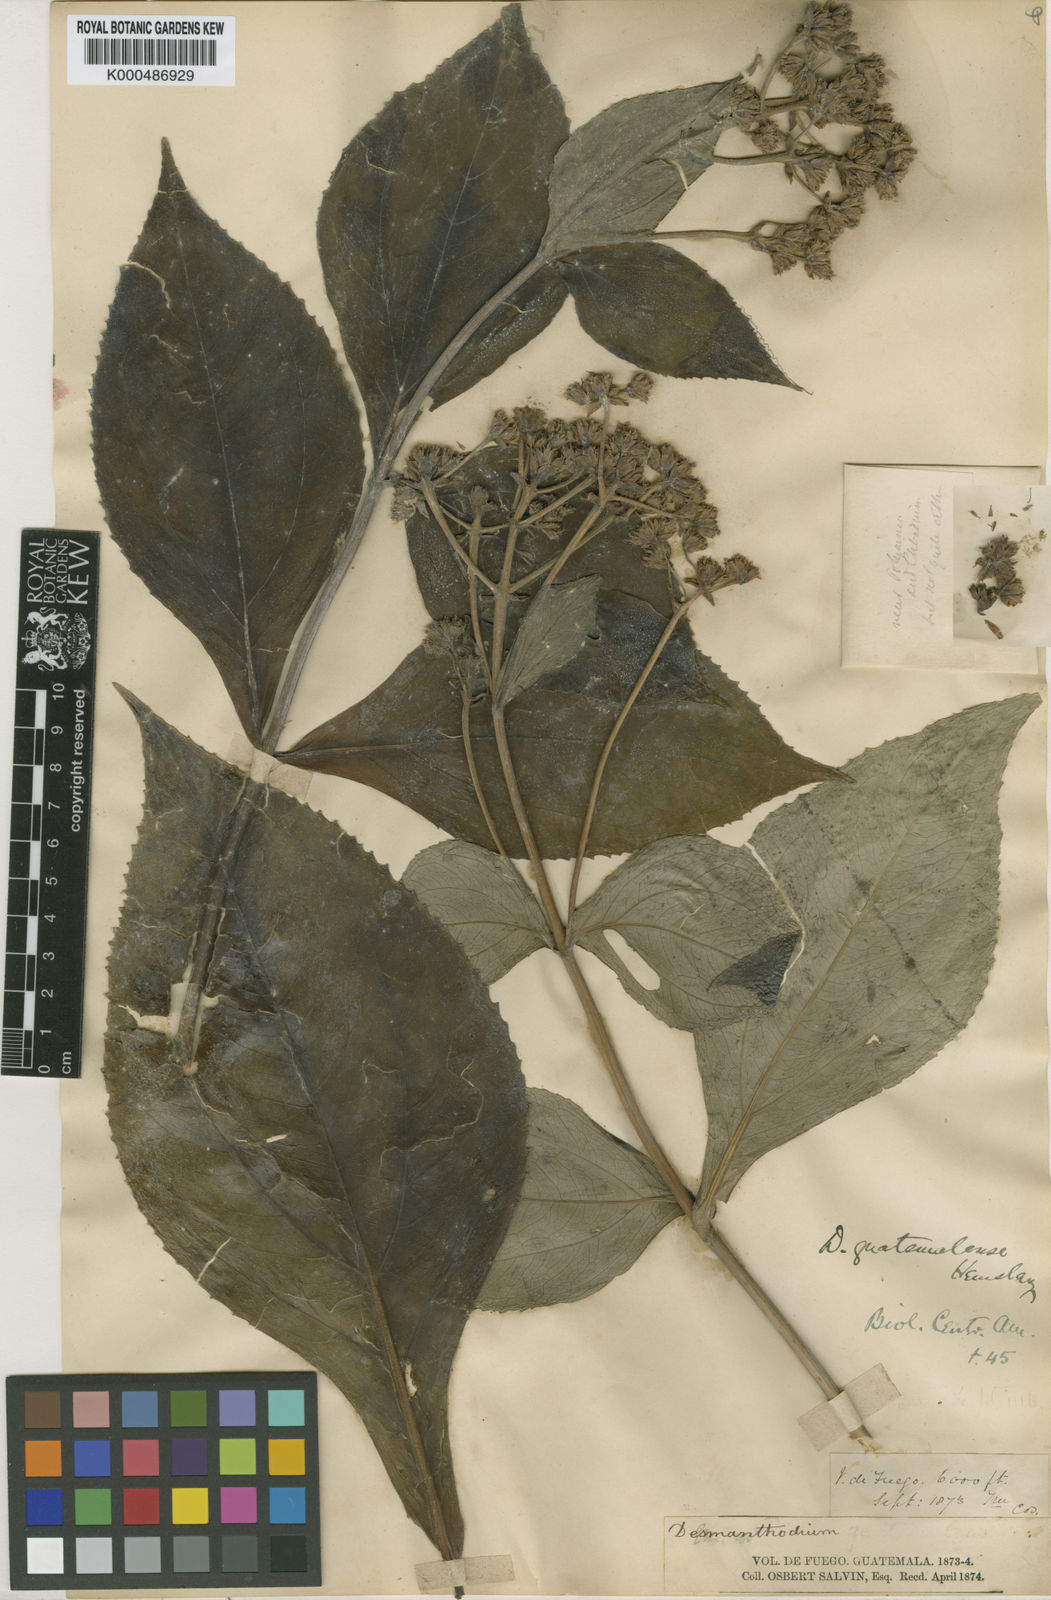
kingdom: Plantae
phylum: Tracheophyta
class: Magnoliopsida
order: Asterales
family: Asteraceae
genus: Desmanthodium
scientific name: Desmanthodium guatemalense
